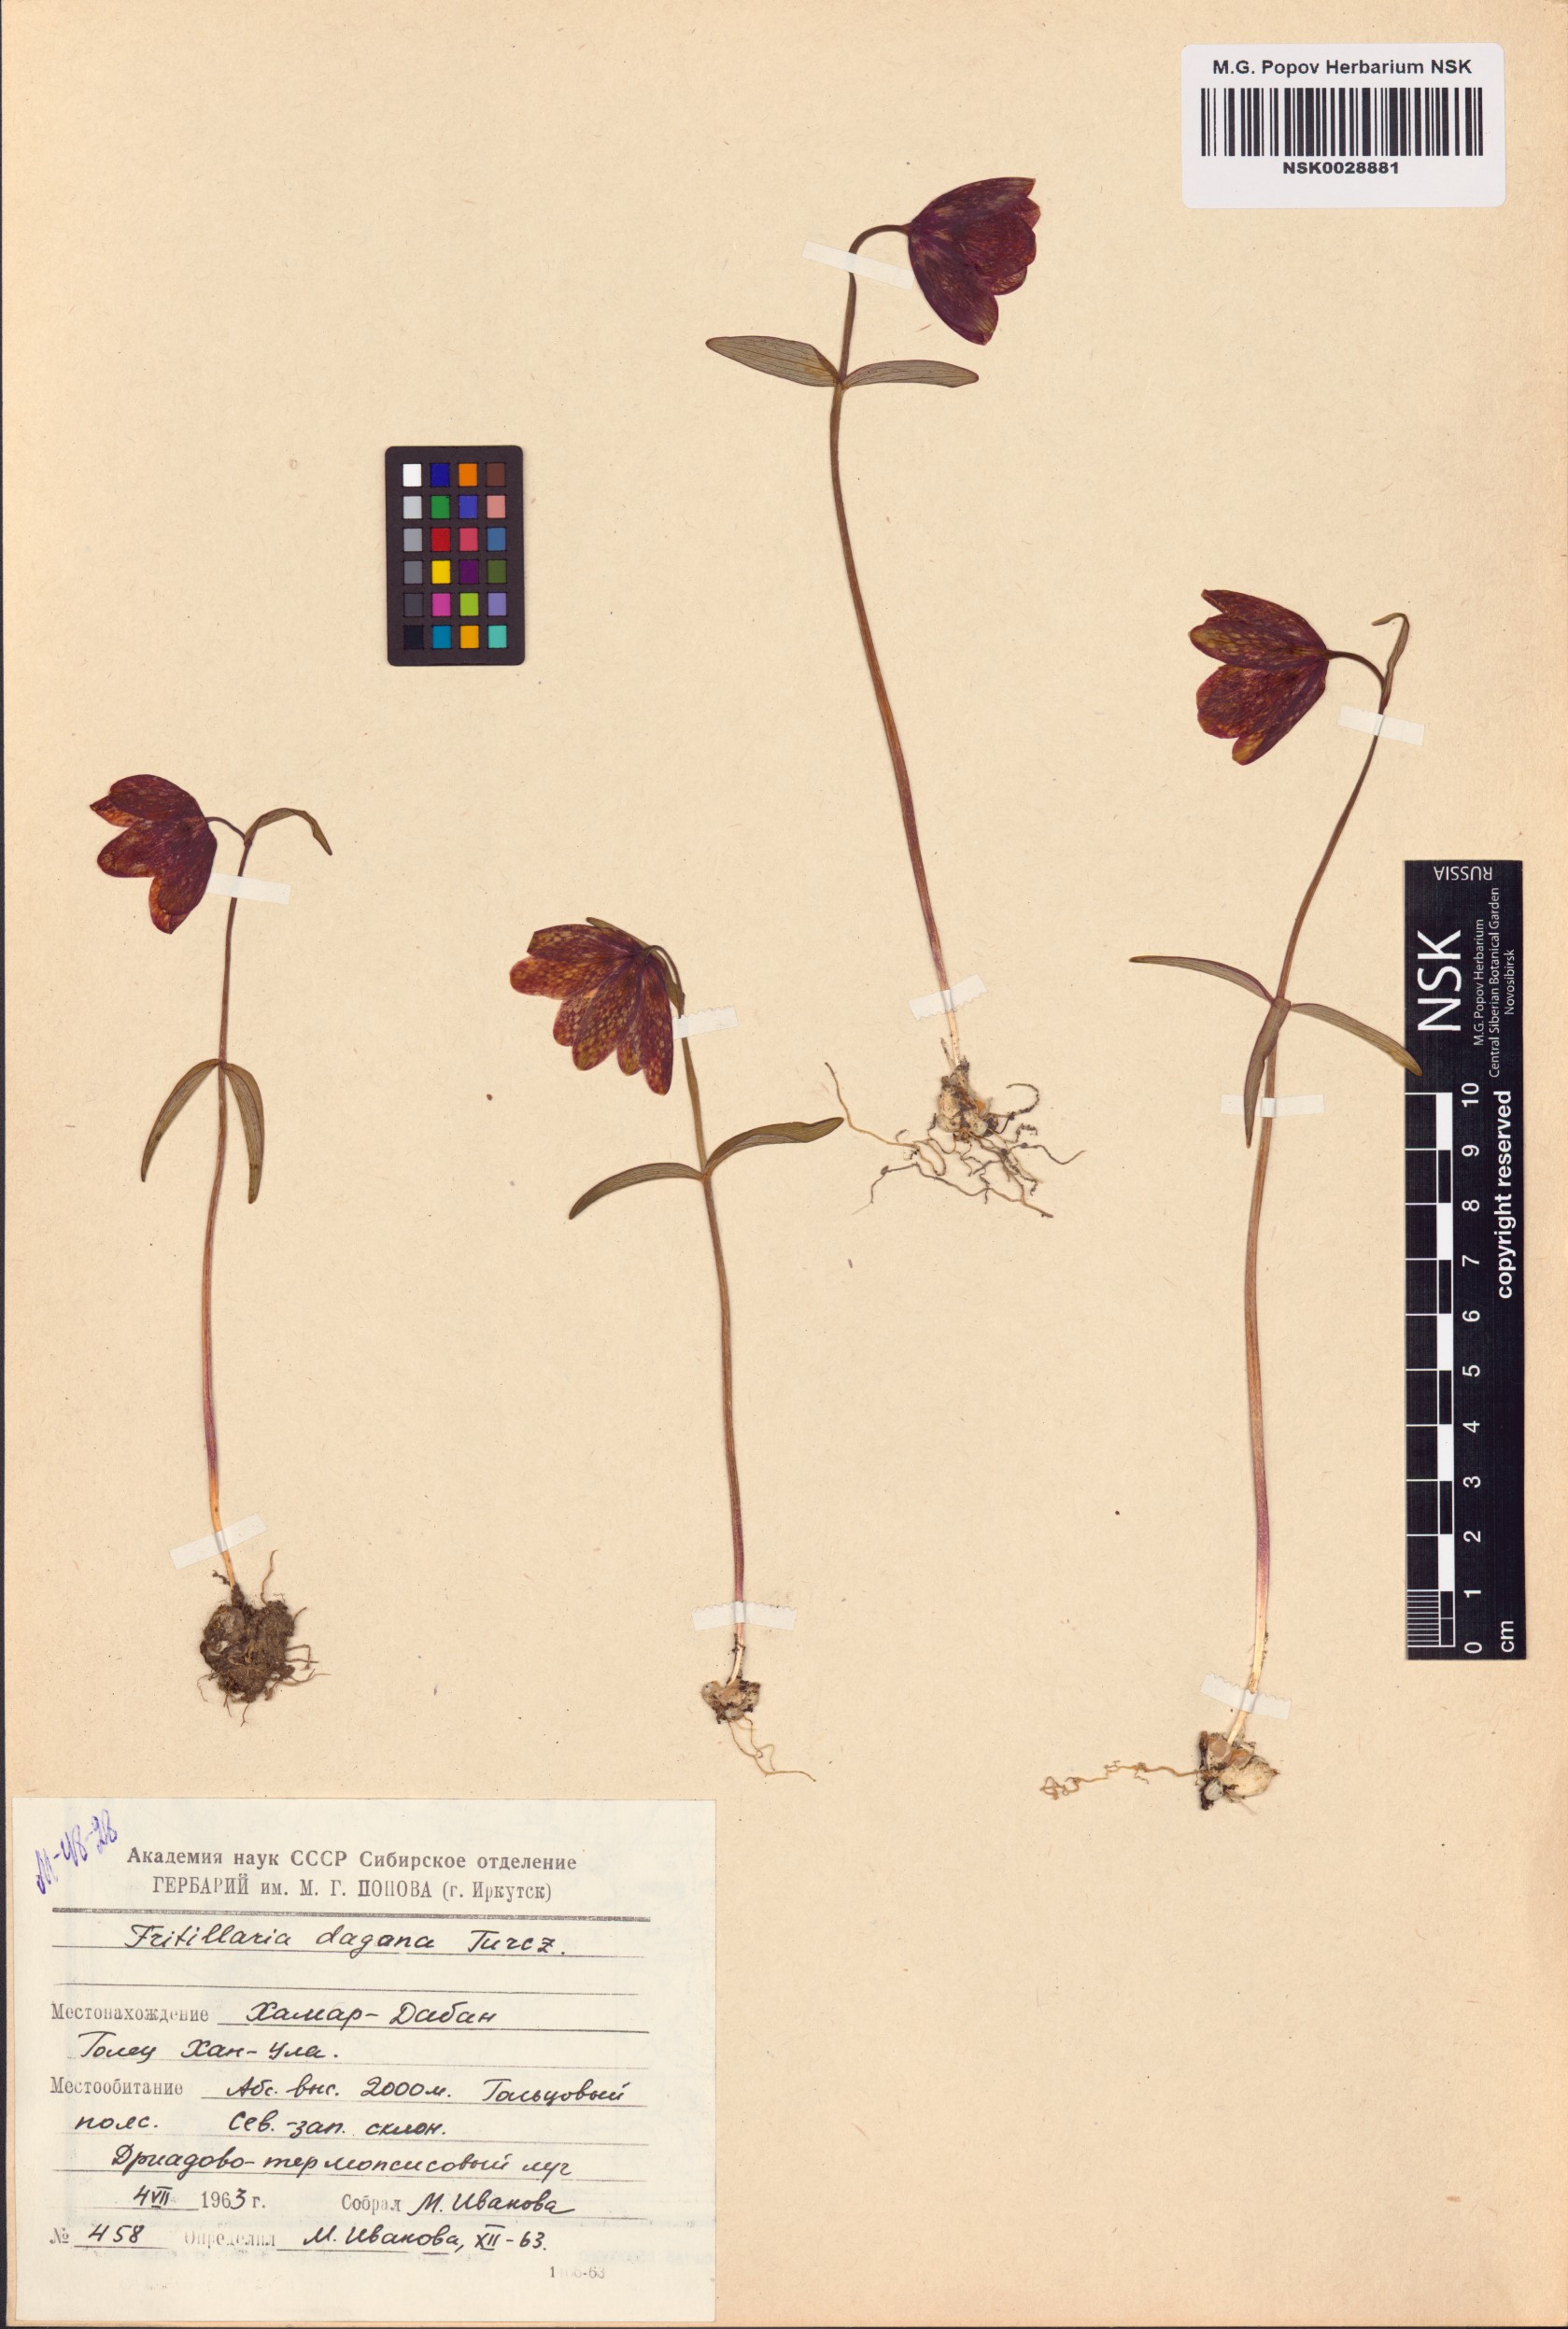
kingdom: Plantae
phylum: Tracheophyta
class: Liliopsida
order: Liliales
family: Liliaceae
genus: Fritillaria
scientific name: Fritillaria dagana
